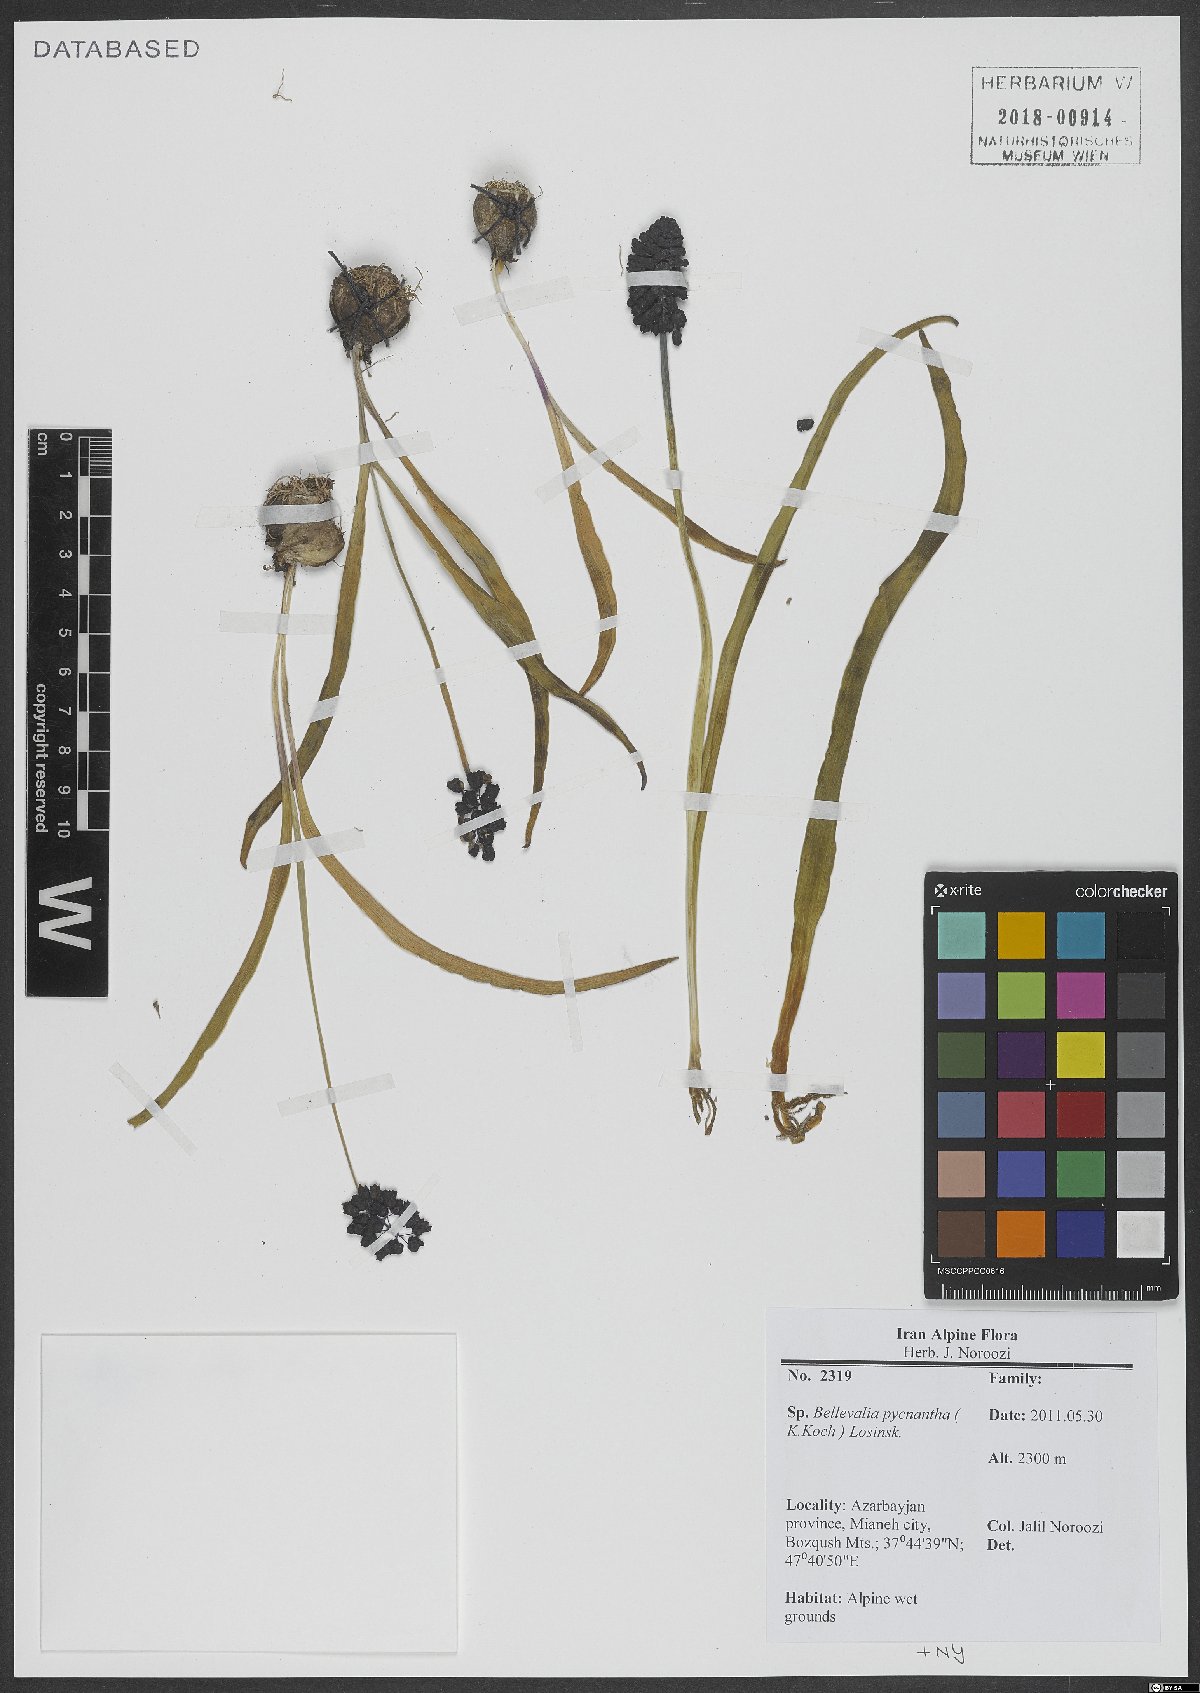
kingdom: Plantae
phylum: Tracheophyta
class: Liliopsida
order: Asparagales
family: Asparagaceae
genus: Bellevalia
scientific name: Bellevalia paradoxa
